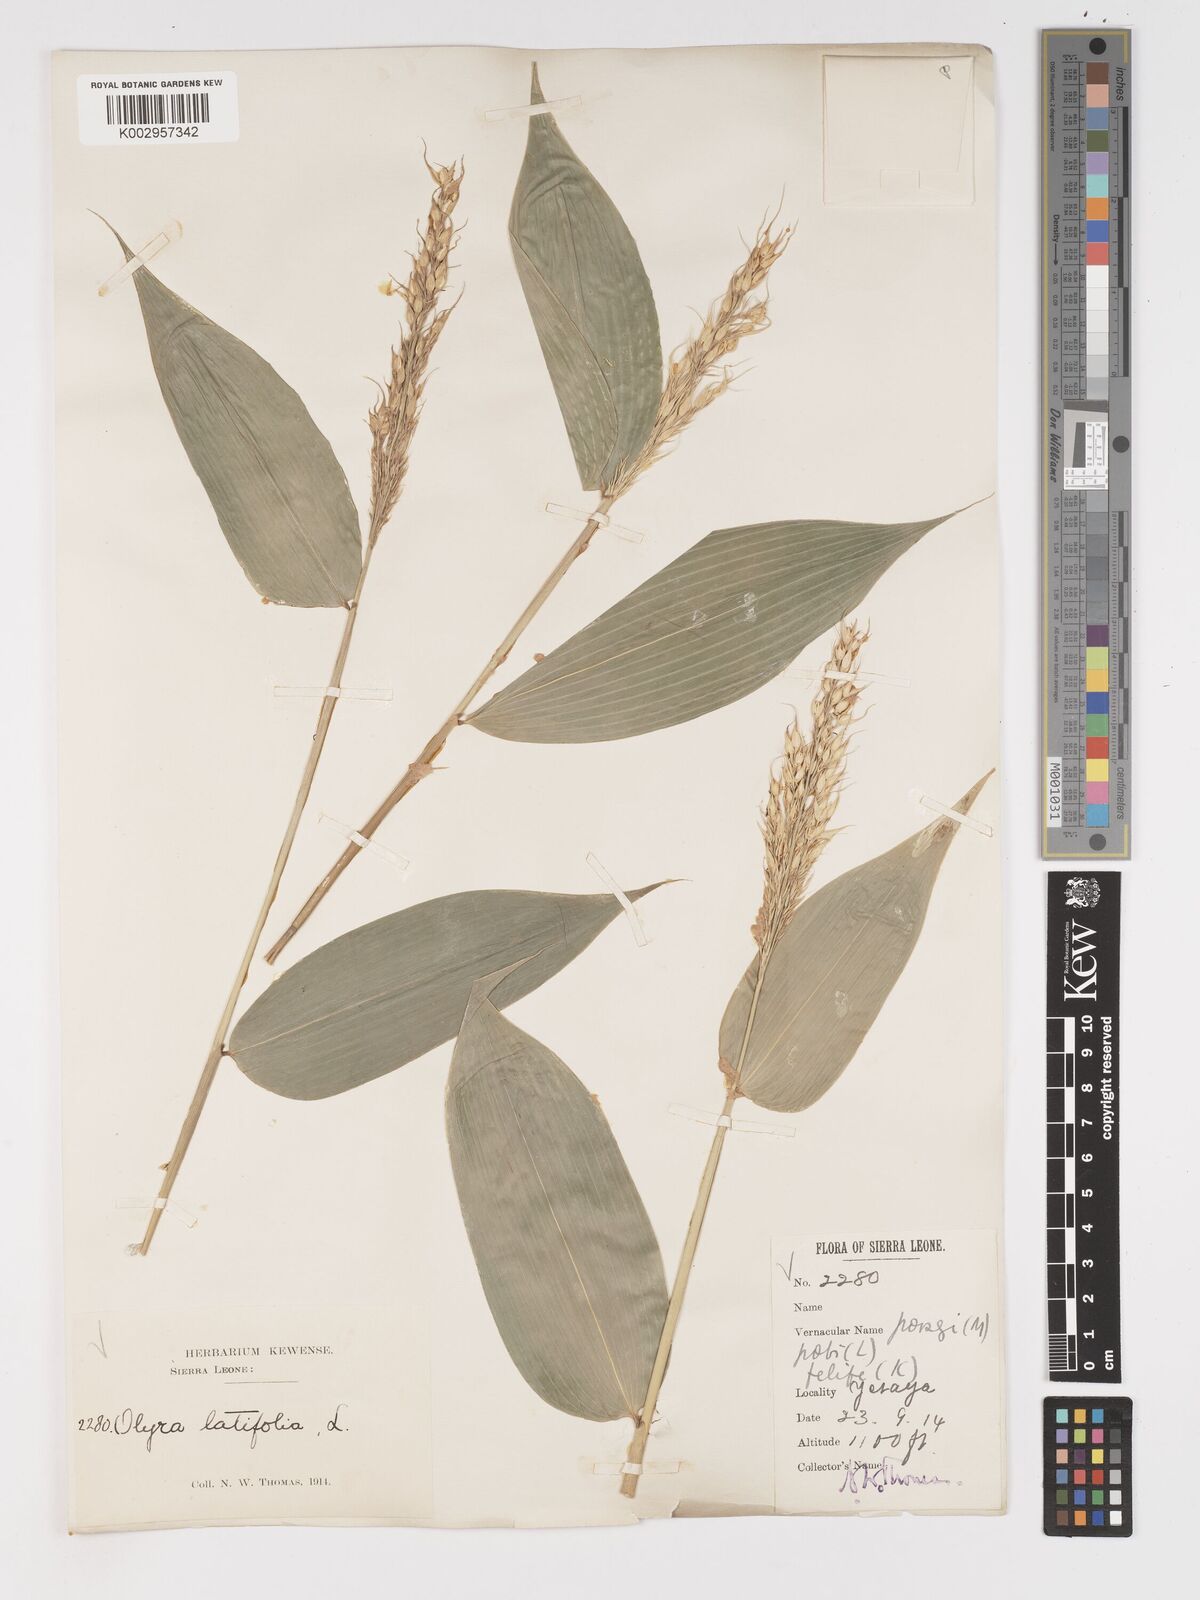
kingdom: Plantae
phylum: Tracheophyta
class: Liliopsida
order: Poales
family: Poaceae
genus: Olyra
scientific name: Olyra latifolia
